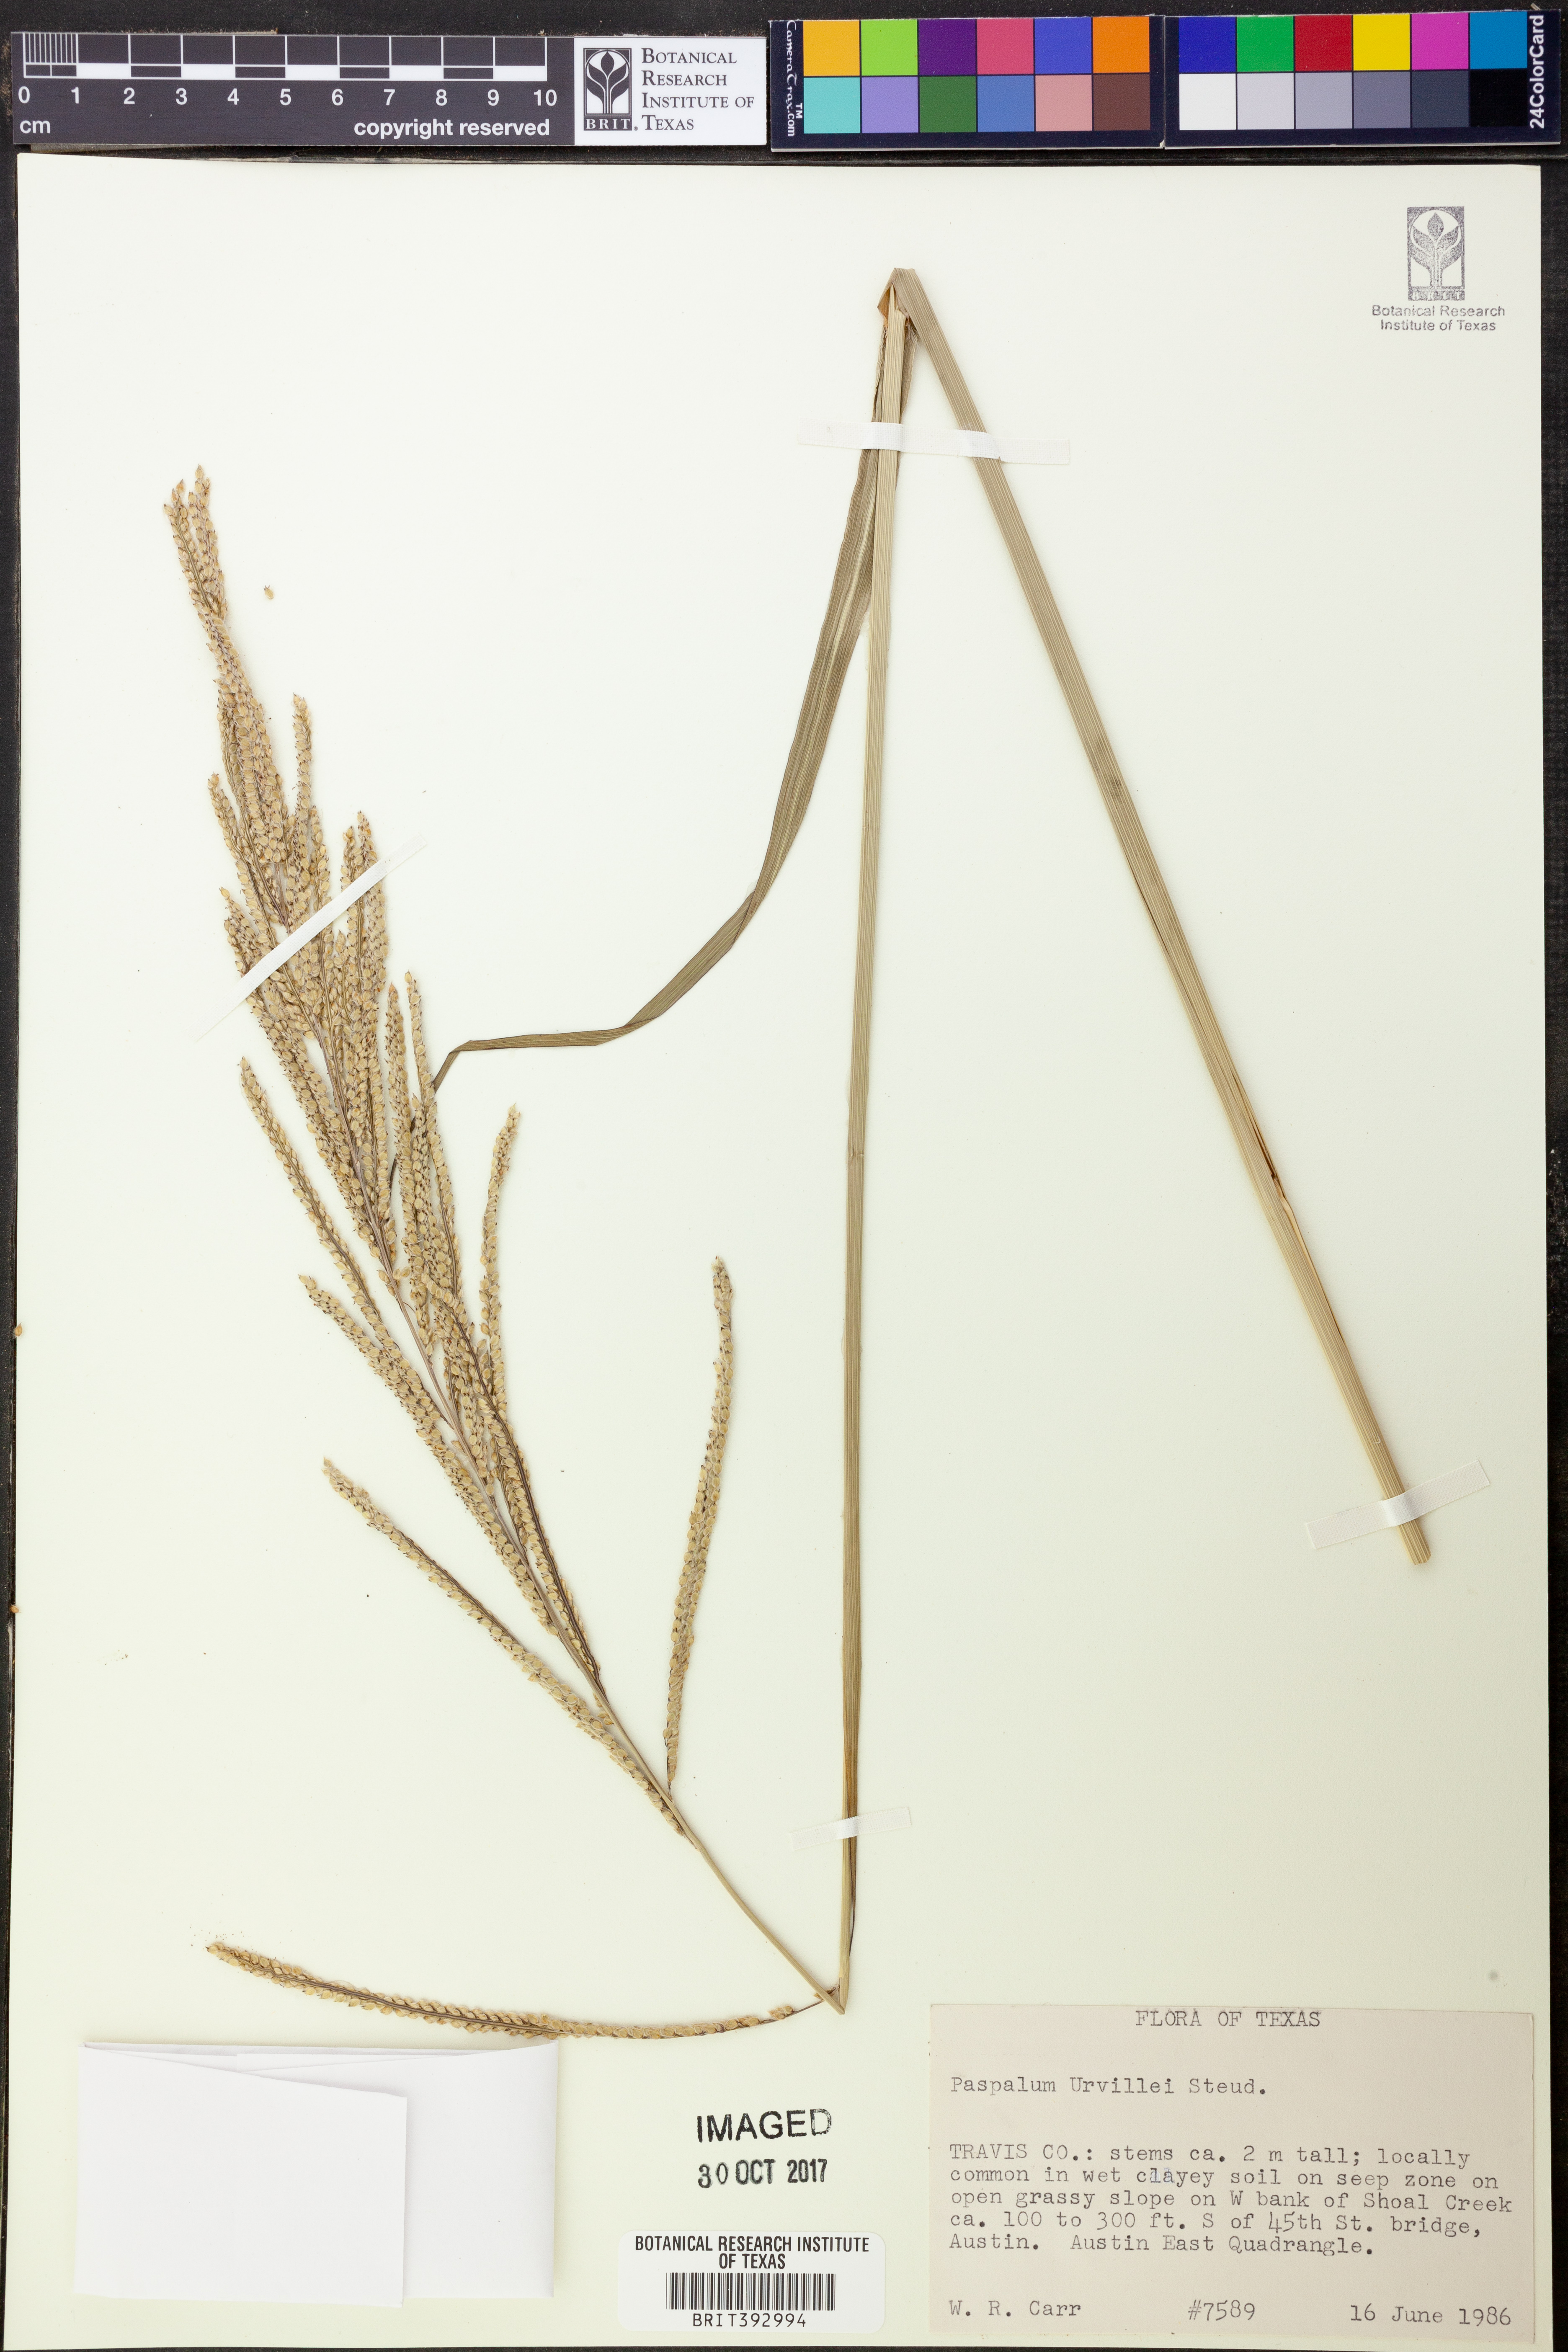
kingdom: Plantae
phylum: Tracheophyta
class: Liliopsida
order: Poales
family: Poaceae
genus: Paspalum
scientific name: Paspalum urvillei
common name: Vasey's grass
